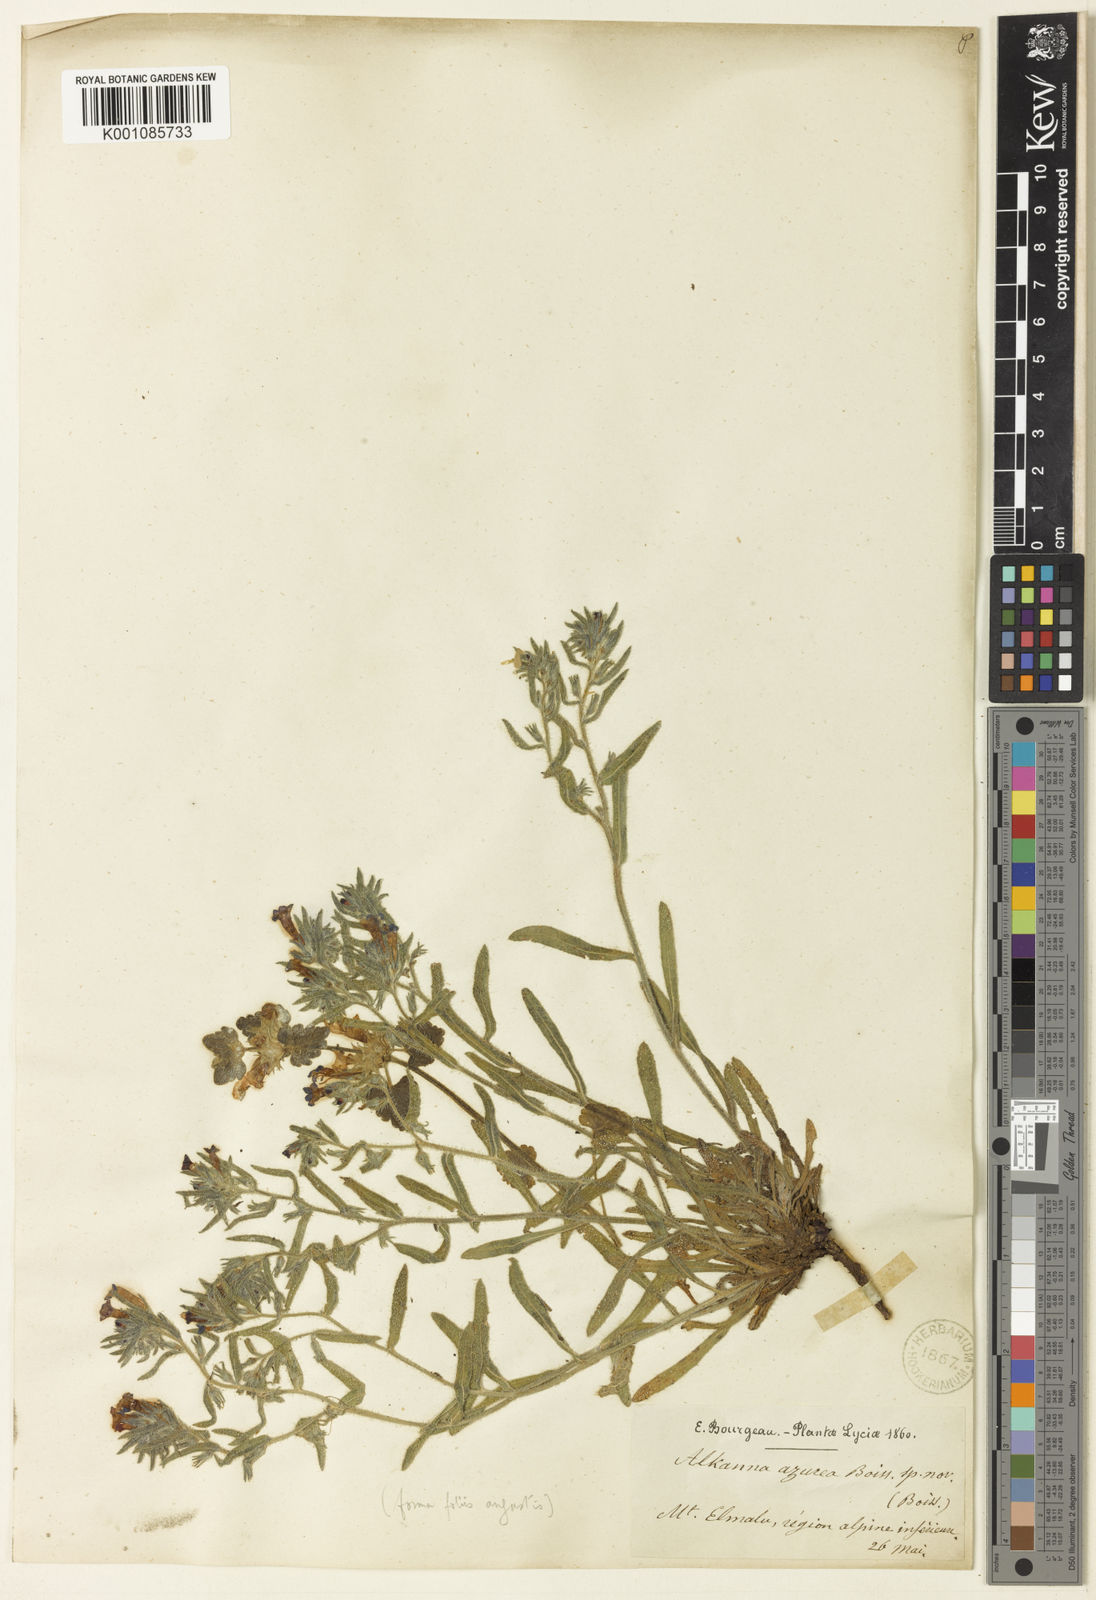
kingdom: Plantae
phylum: Tracheophyta
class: Magnoliopsida
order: Boraginales
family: Boraginaceae
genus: Alkanna
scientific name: Alkanna areolata
